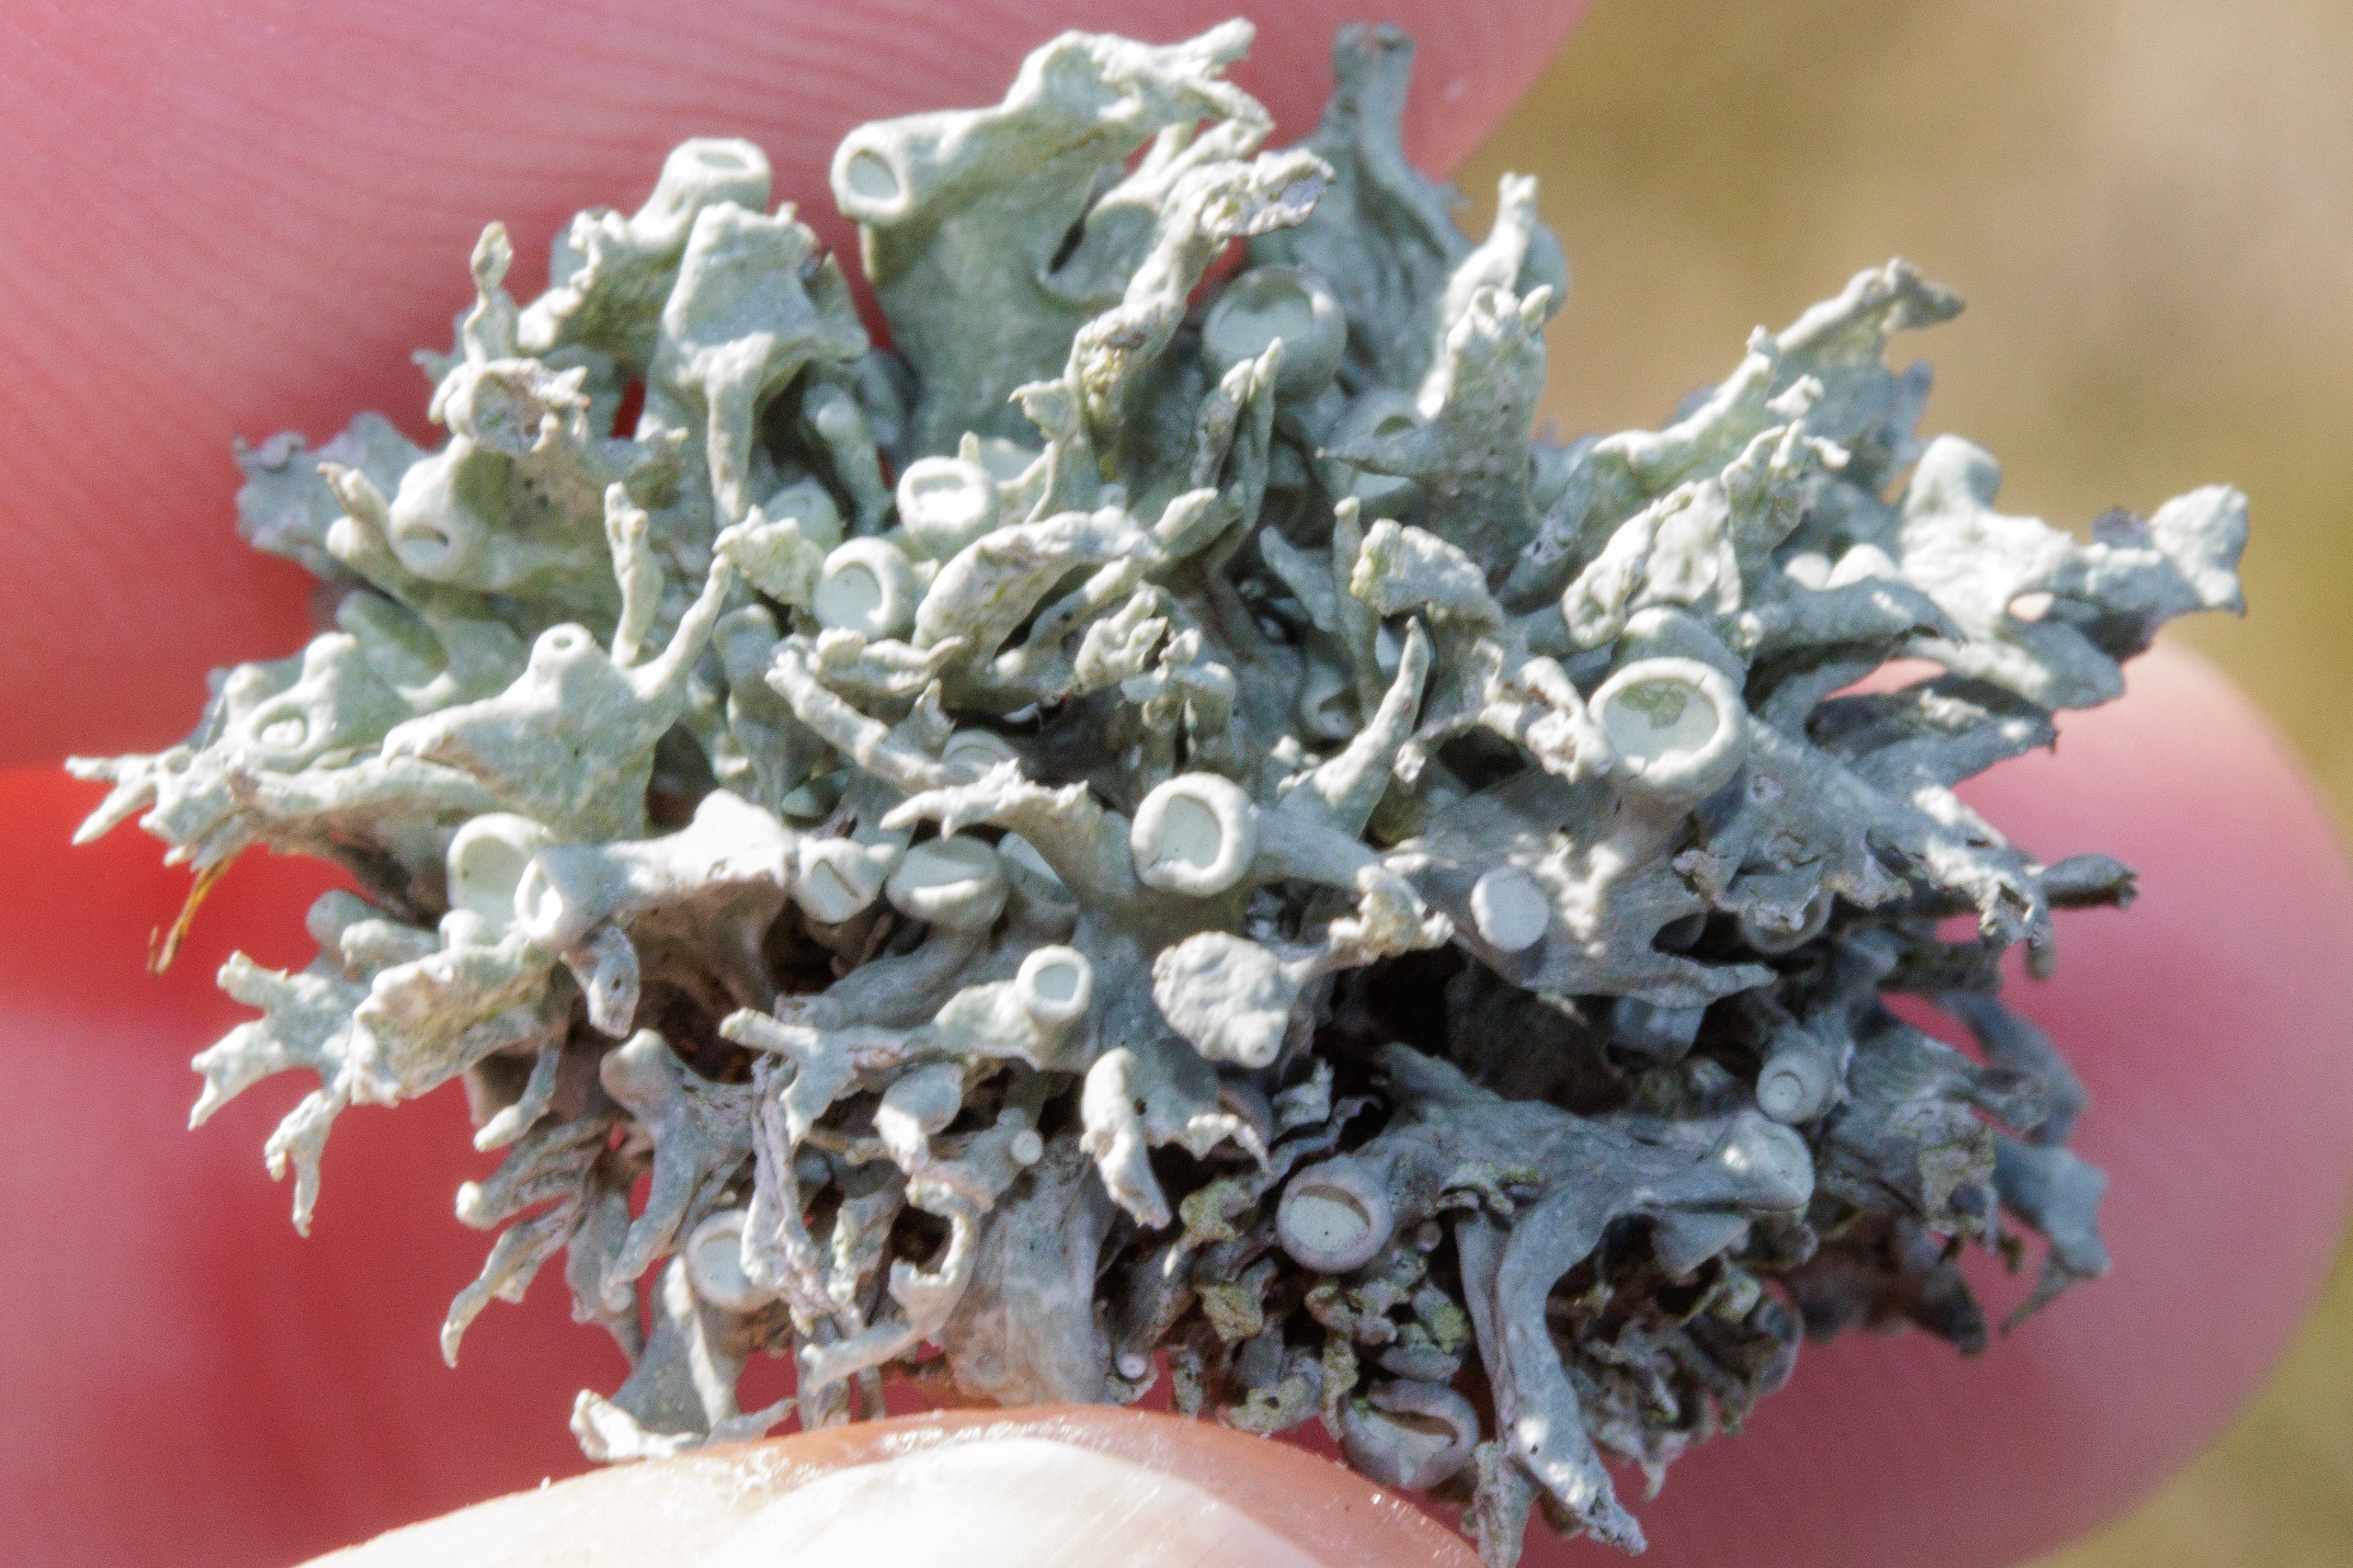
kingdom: Fungi
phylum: Ascomycota
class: Lecanoromycetes
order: Lecanorales
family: Ramalinaceae
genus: Ramalina
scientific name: Ramalina fastigiata
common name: Tue-grenlav
